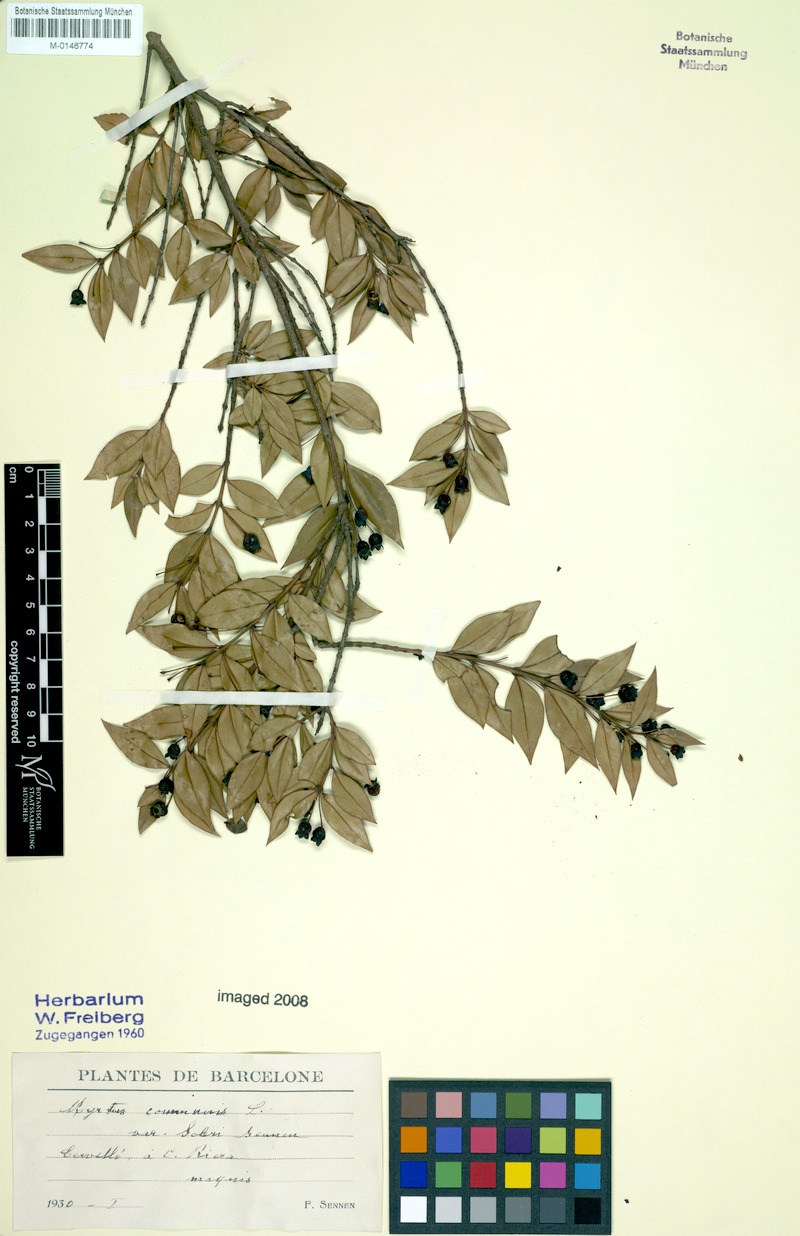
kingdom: Plantae
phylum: Tracheophyta
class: Magnoliopsida
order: Myrtales
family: Myrtaceae
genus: Myrtus
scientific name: Myrtus communis
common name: Myrtle
